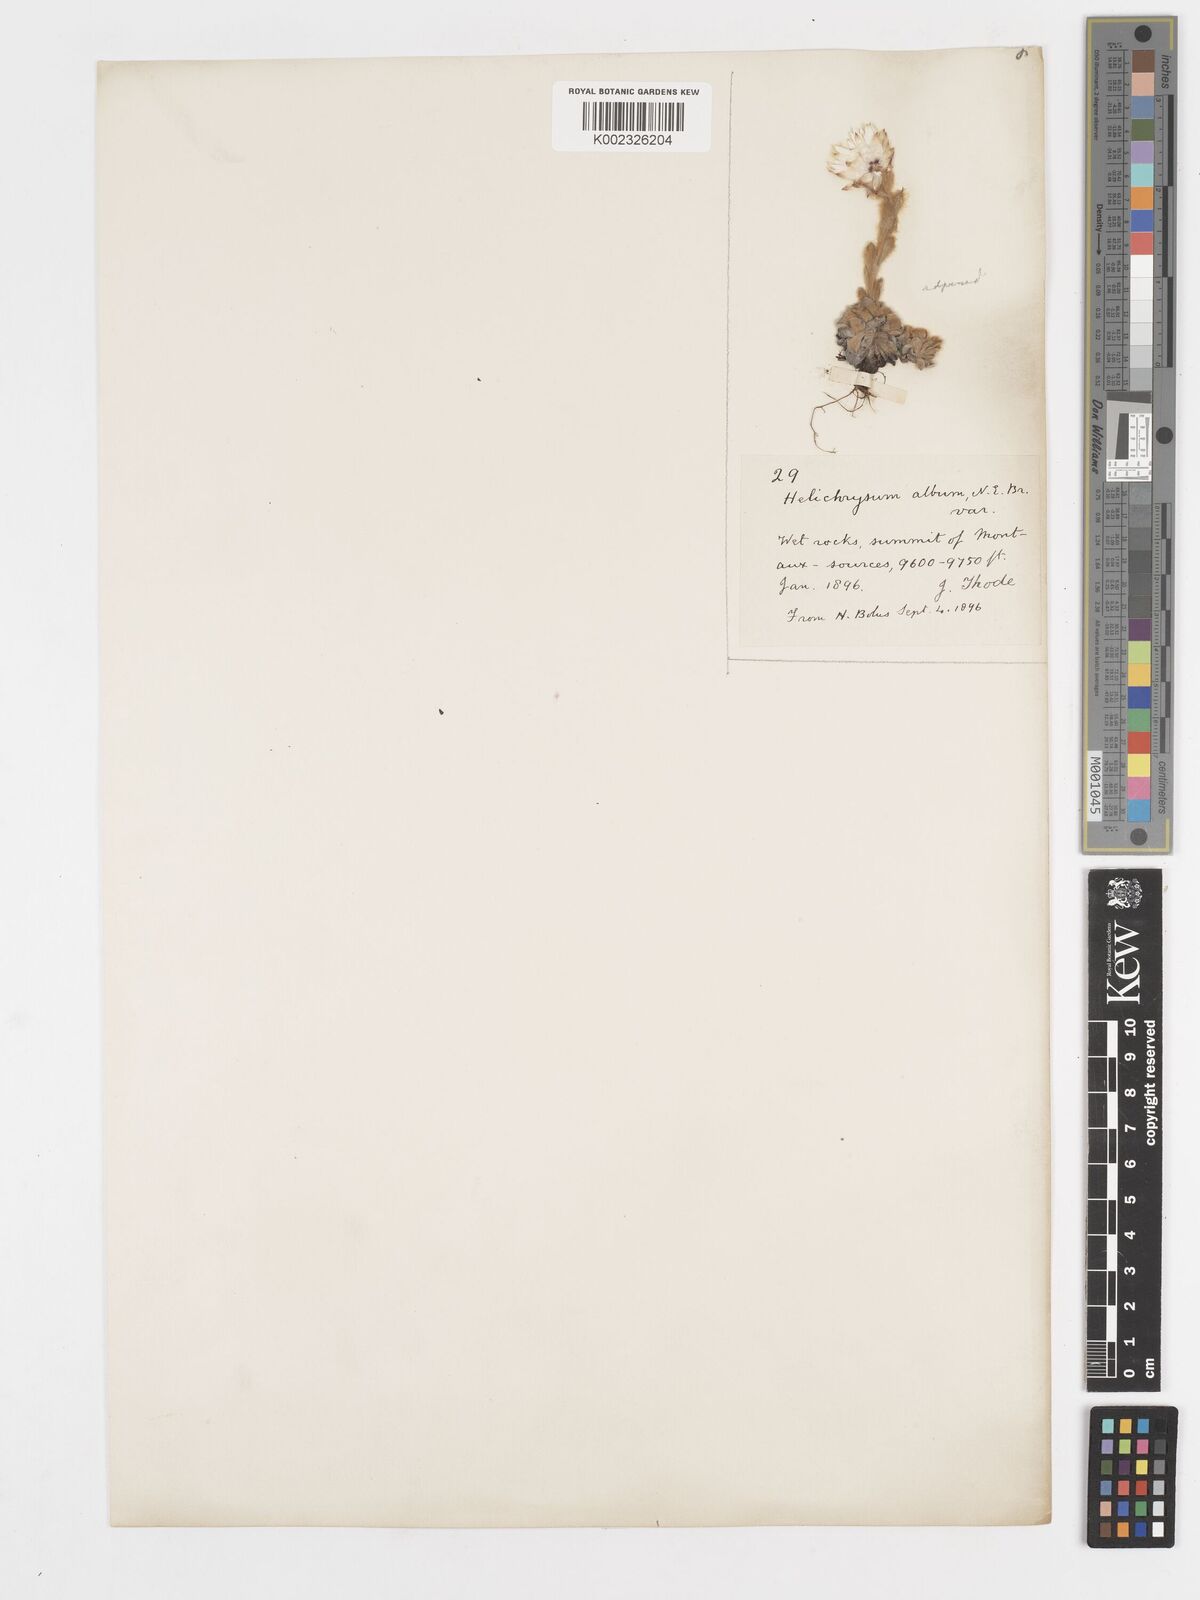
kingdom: Plantae
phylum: Tracheophyta
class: Magnoliopsida
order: Asterales
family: Asteraceae
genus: Helichrysum
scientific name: Helichrysum milfordiae
